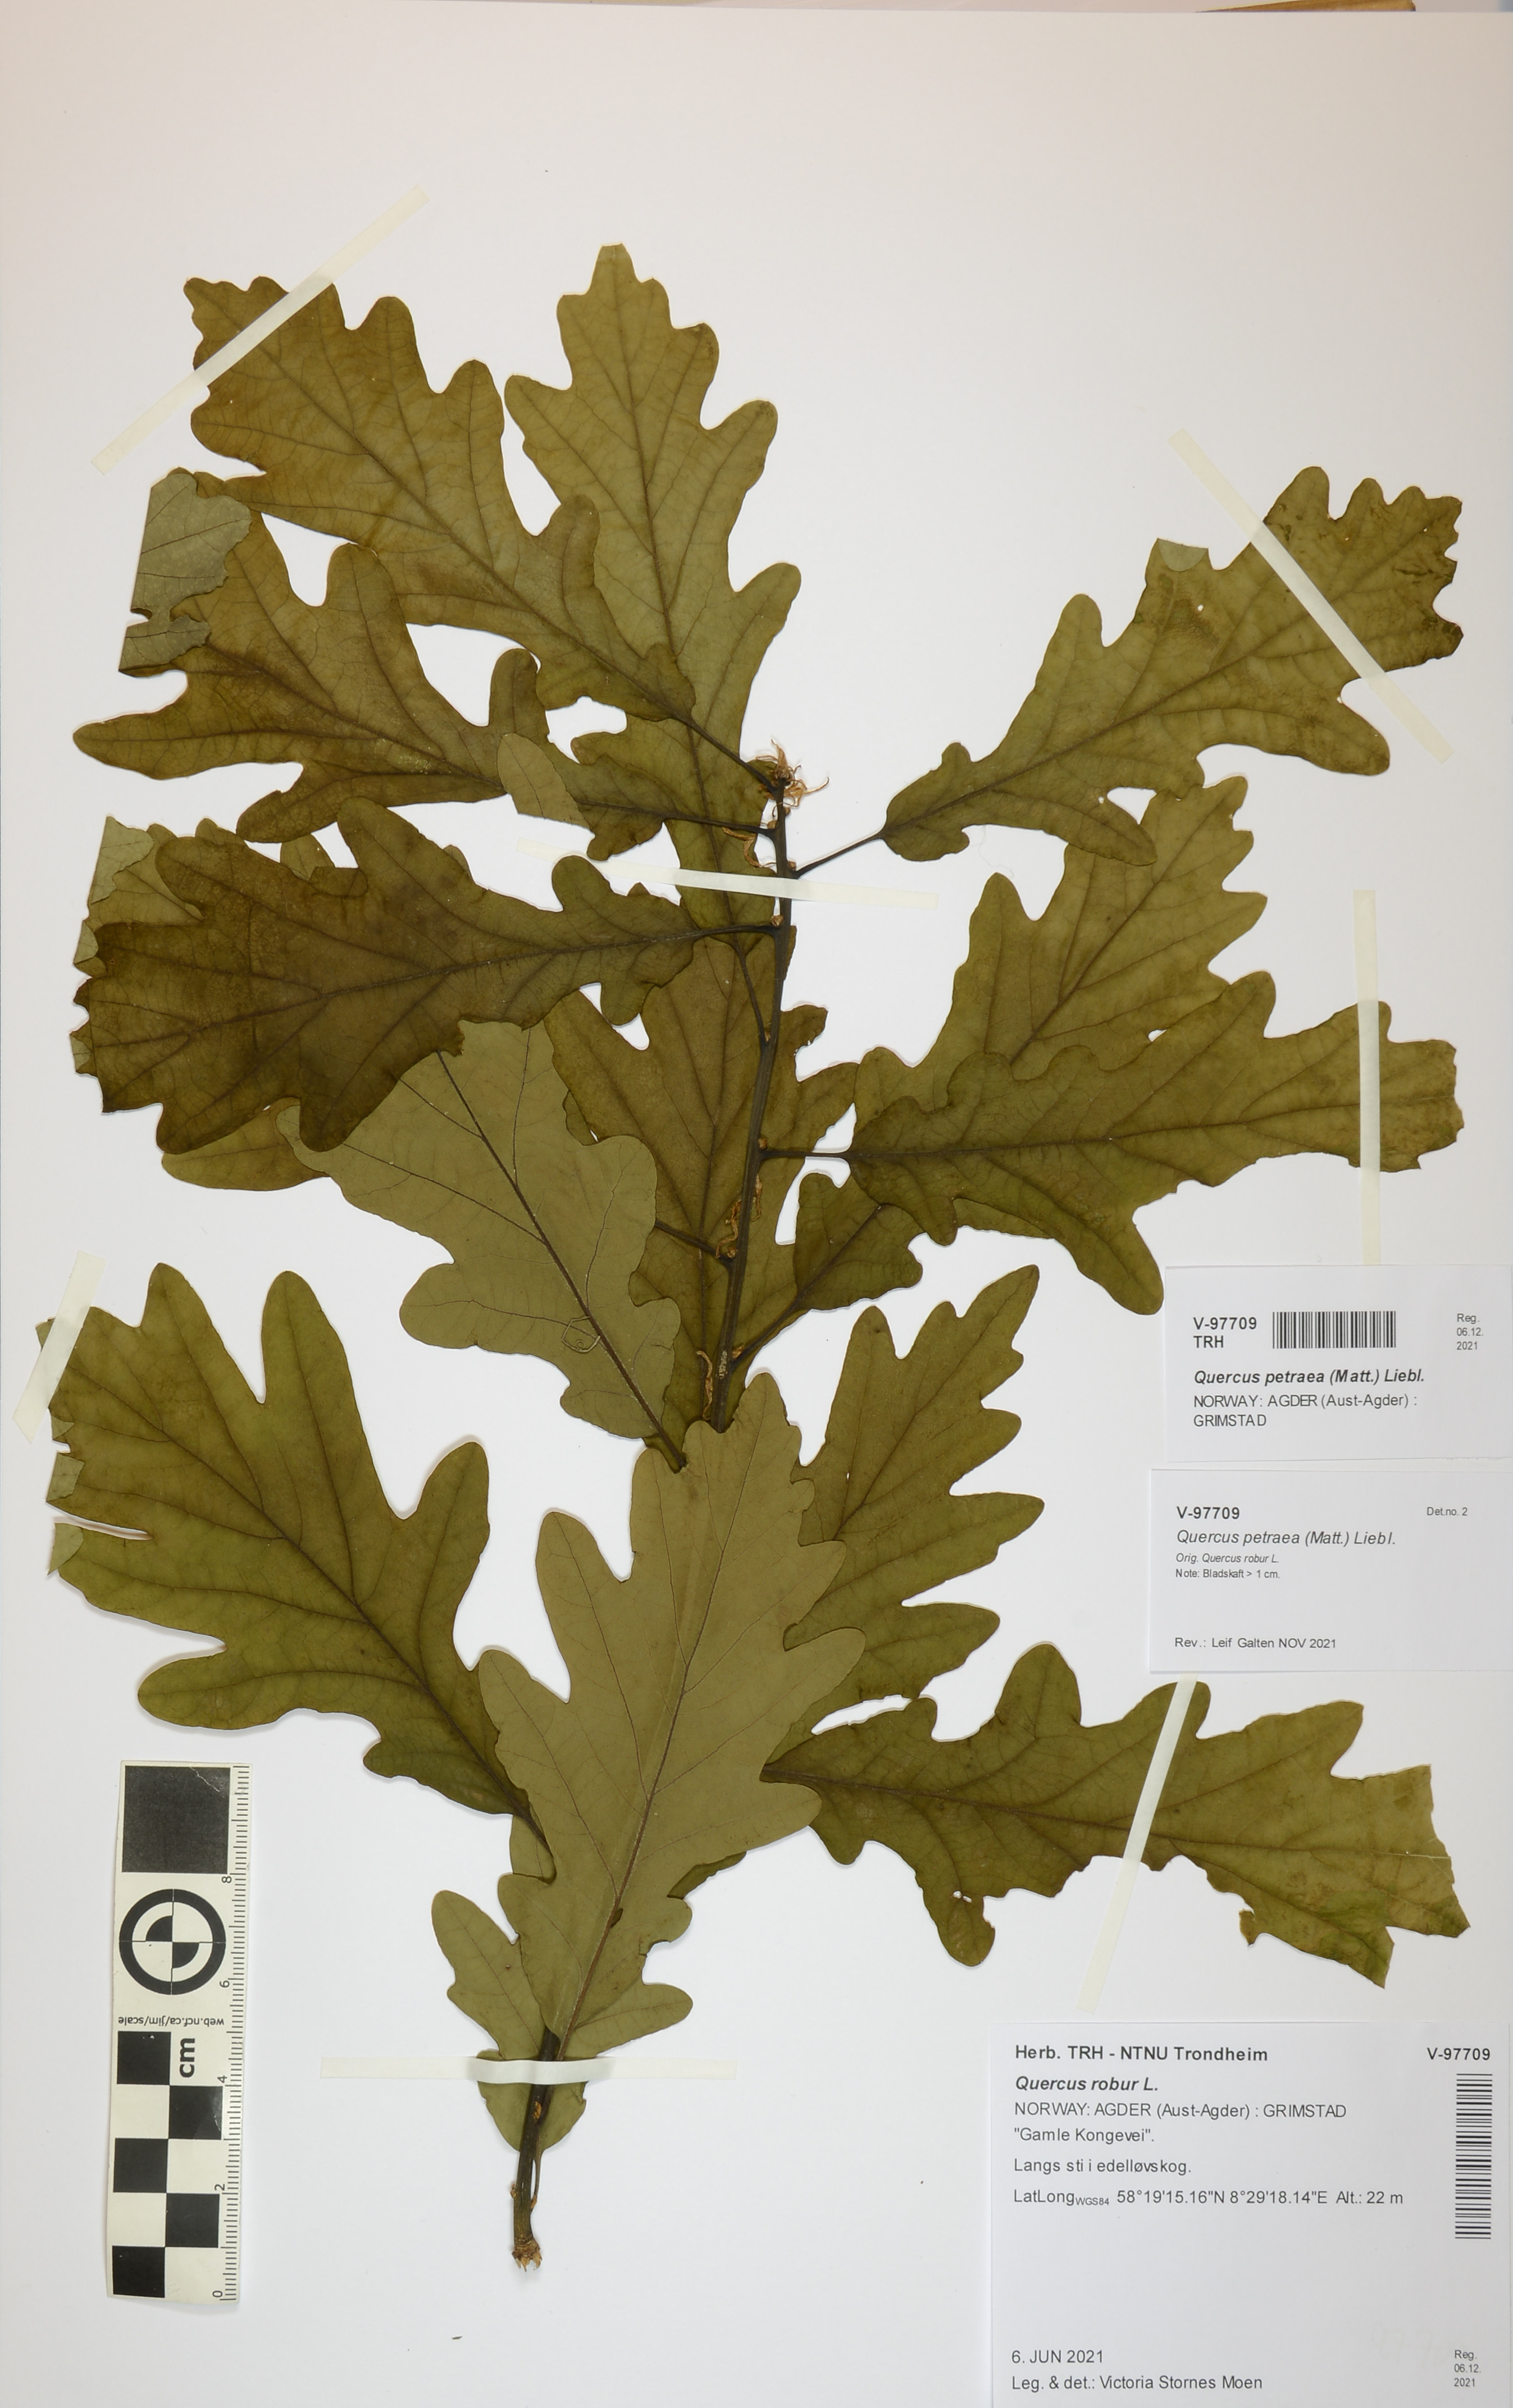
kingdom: Plantae
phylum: Tracheophyta
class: Magnoliopsida
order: Fagales
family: Fagaceae
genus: Quercus
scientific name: Quercus petraea
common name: Sessile oak
